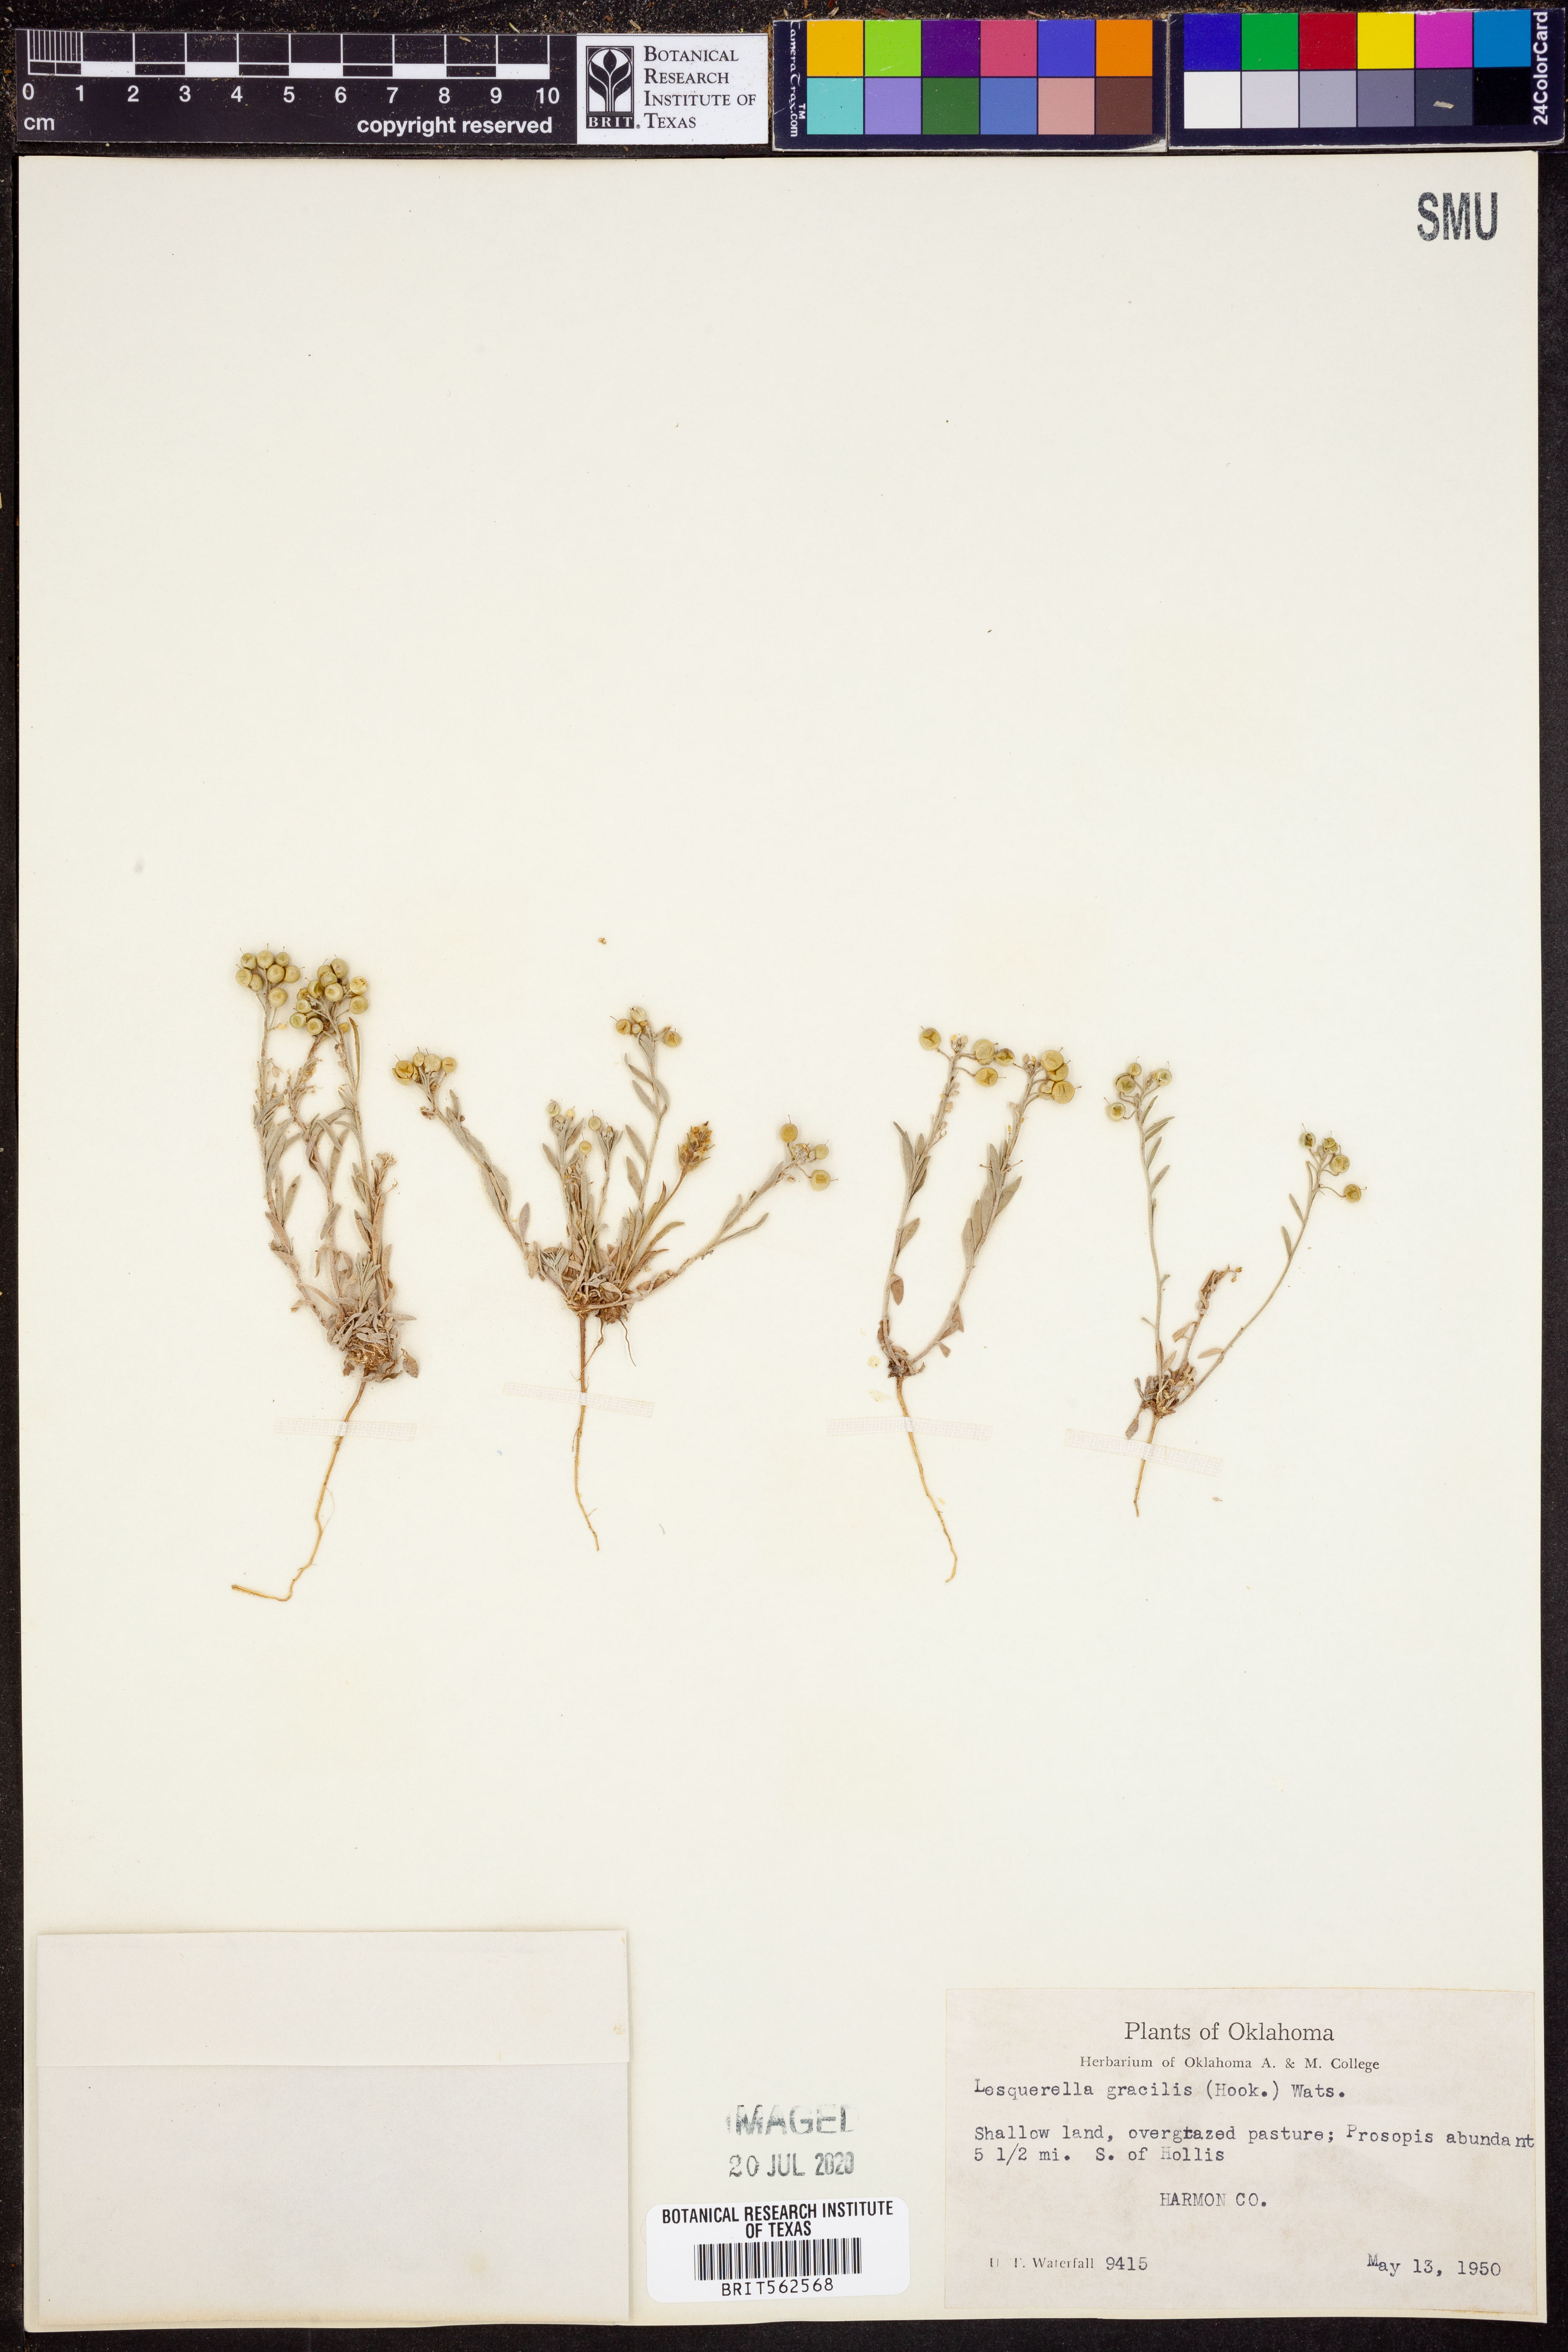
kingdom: Plantae
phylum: Tracheophyta
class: Magnoliopsida
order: Brassicales
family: Brassicaceae
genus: Physaria
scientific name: Physaria gracilis
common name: Spreading bladderpod
